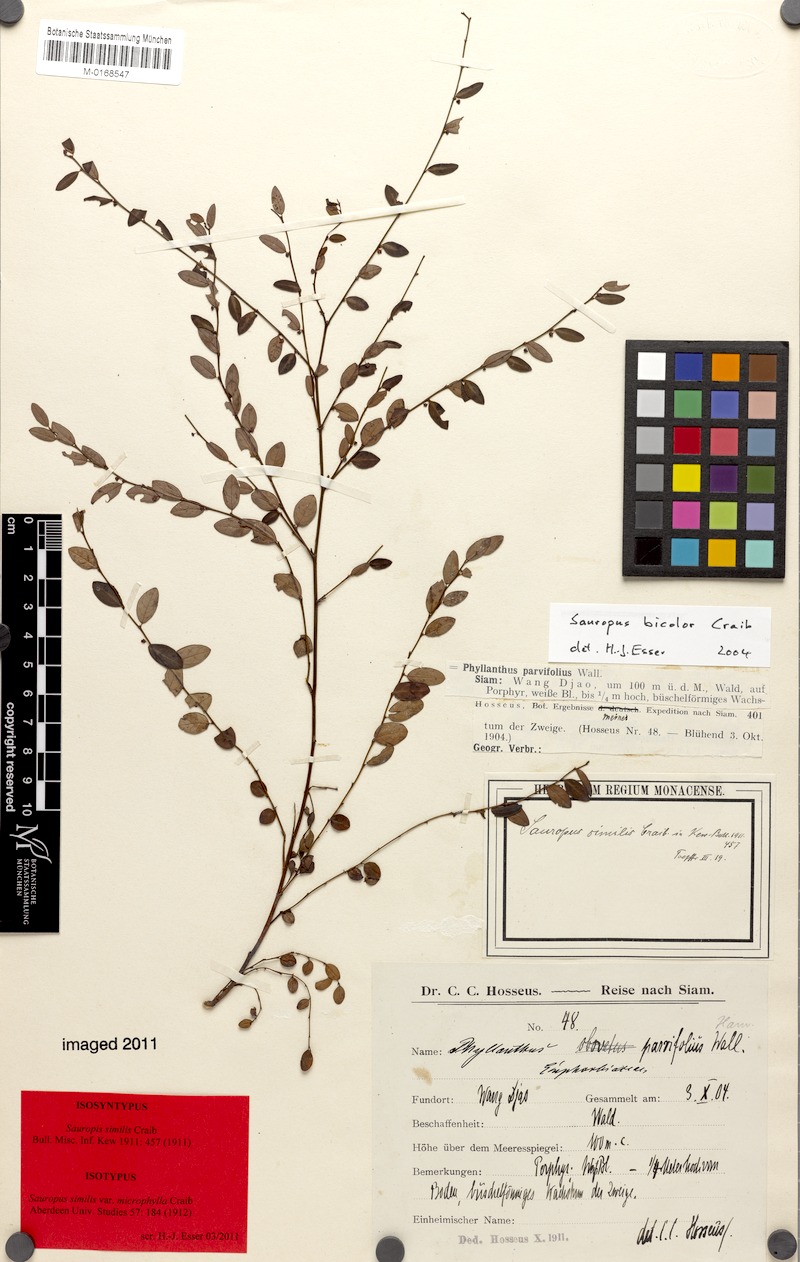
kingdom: Plantae
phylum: Tracheophyta
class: Magnoliopsida
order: Malpighiales
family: Phyllanthaceae
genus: Breynia
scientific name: Breynia bicolor
